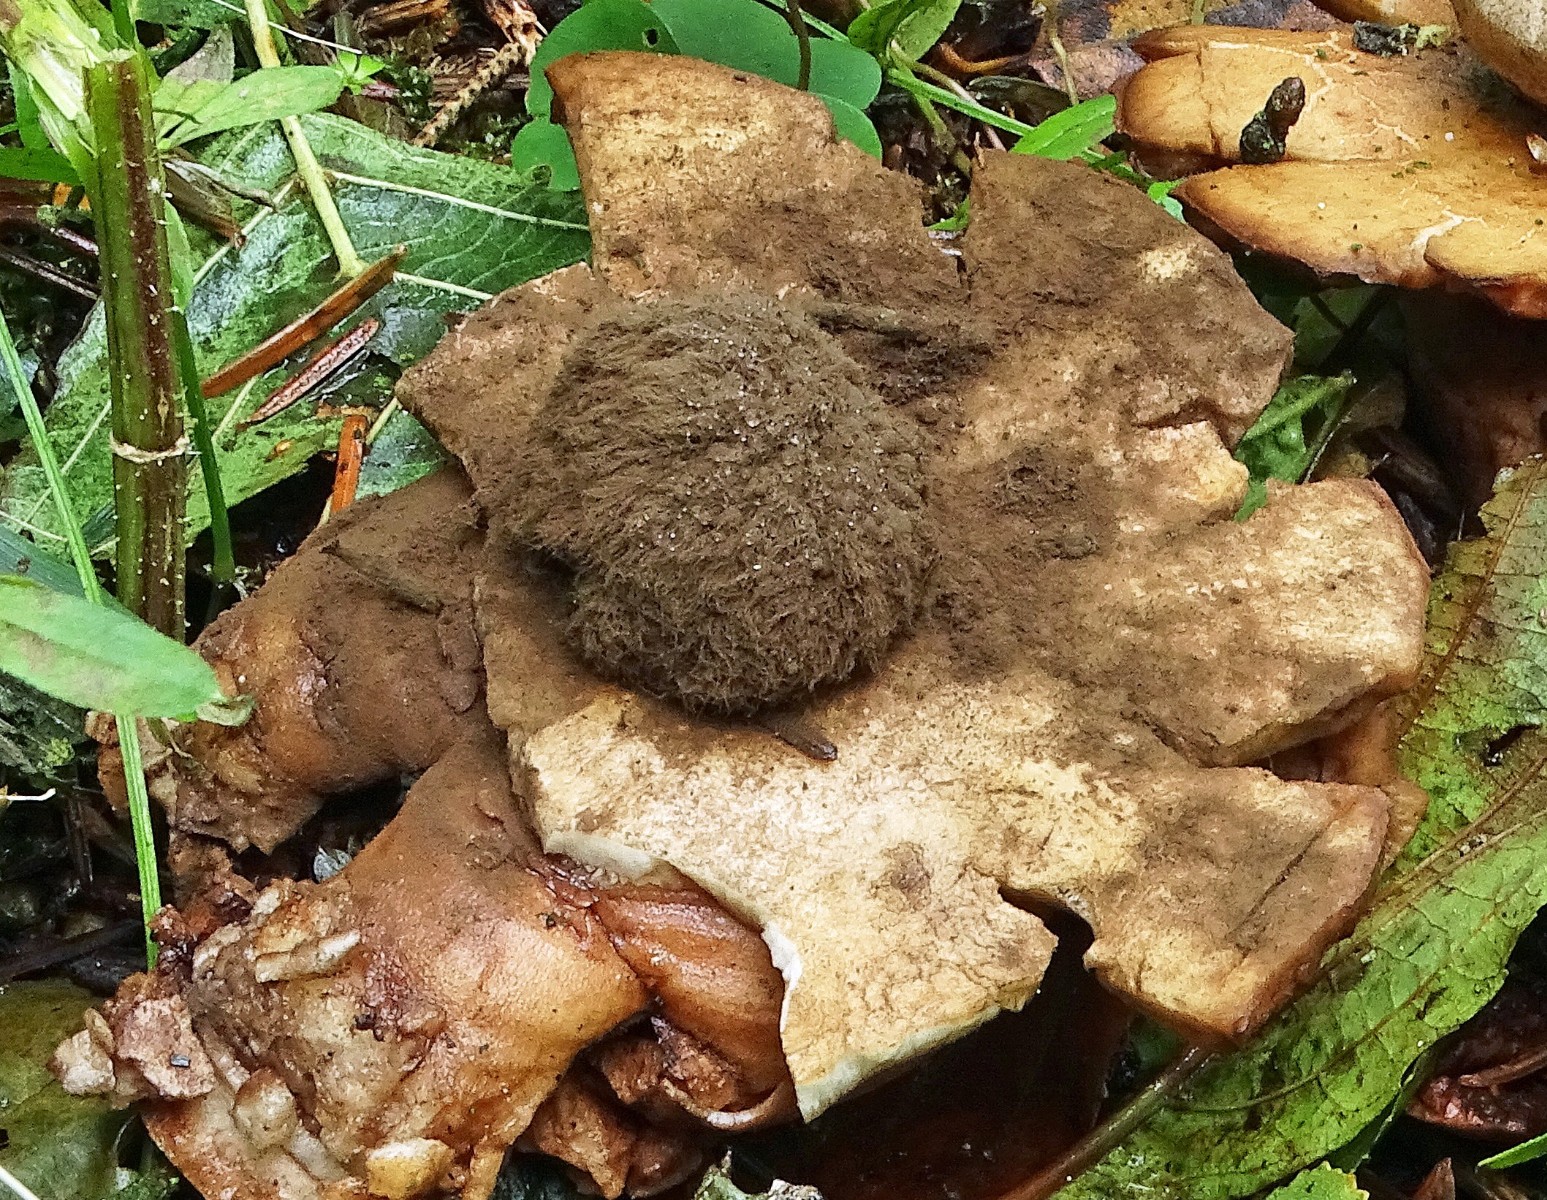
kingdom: Fungi
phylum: Basidiomycota
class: Agaricomycetes
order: Geastrales
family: Geastraceae
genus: Geastrum
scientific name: Geastrum
